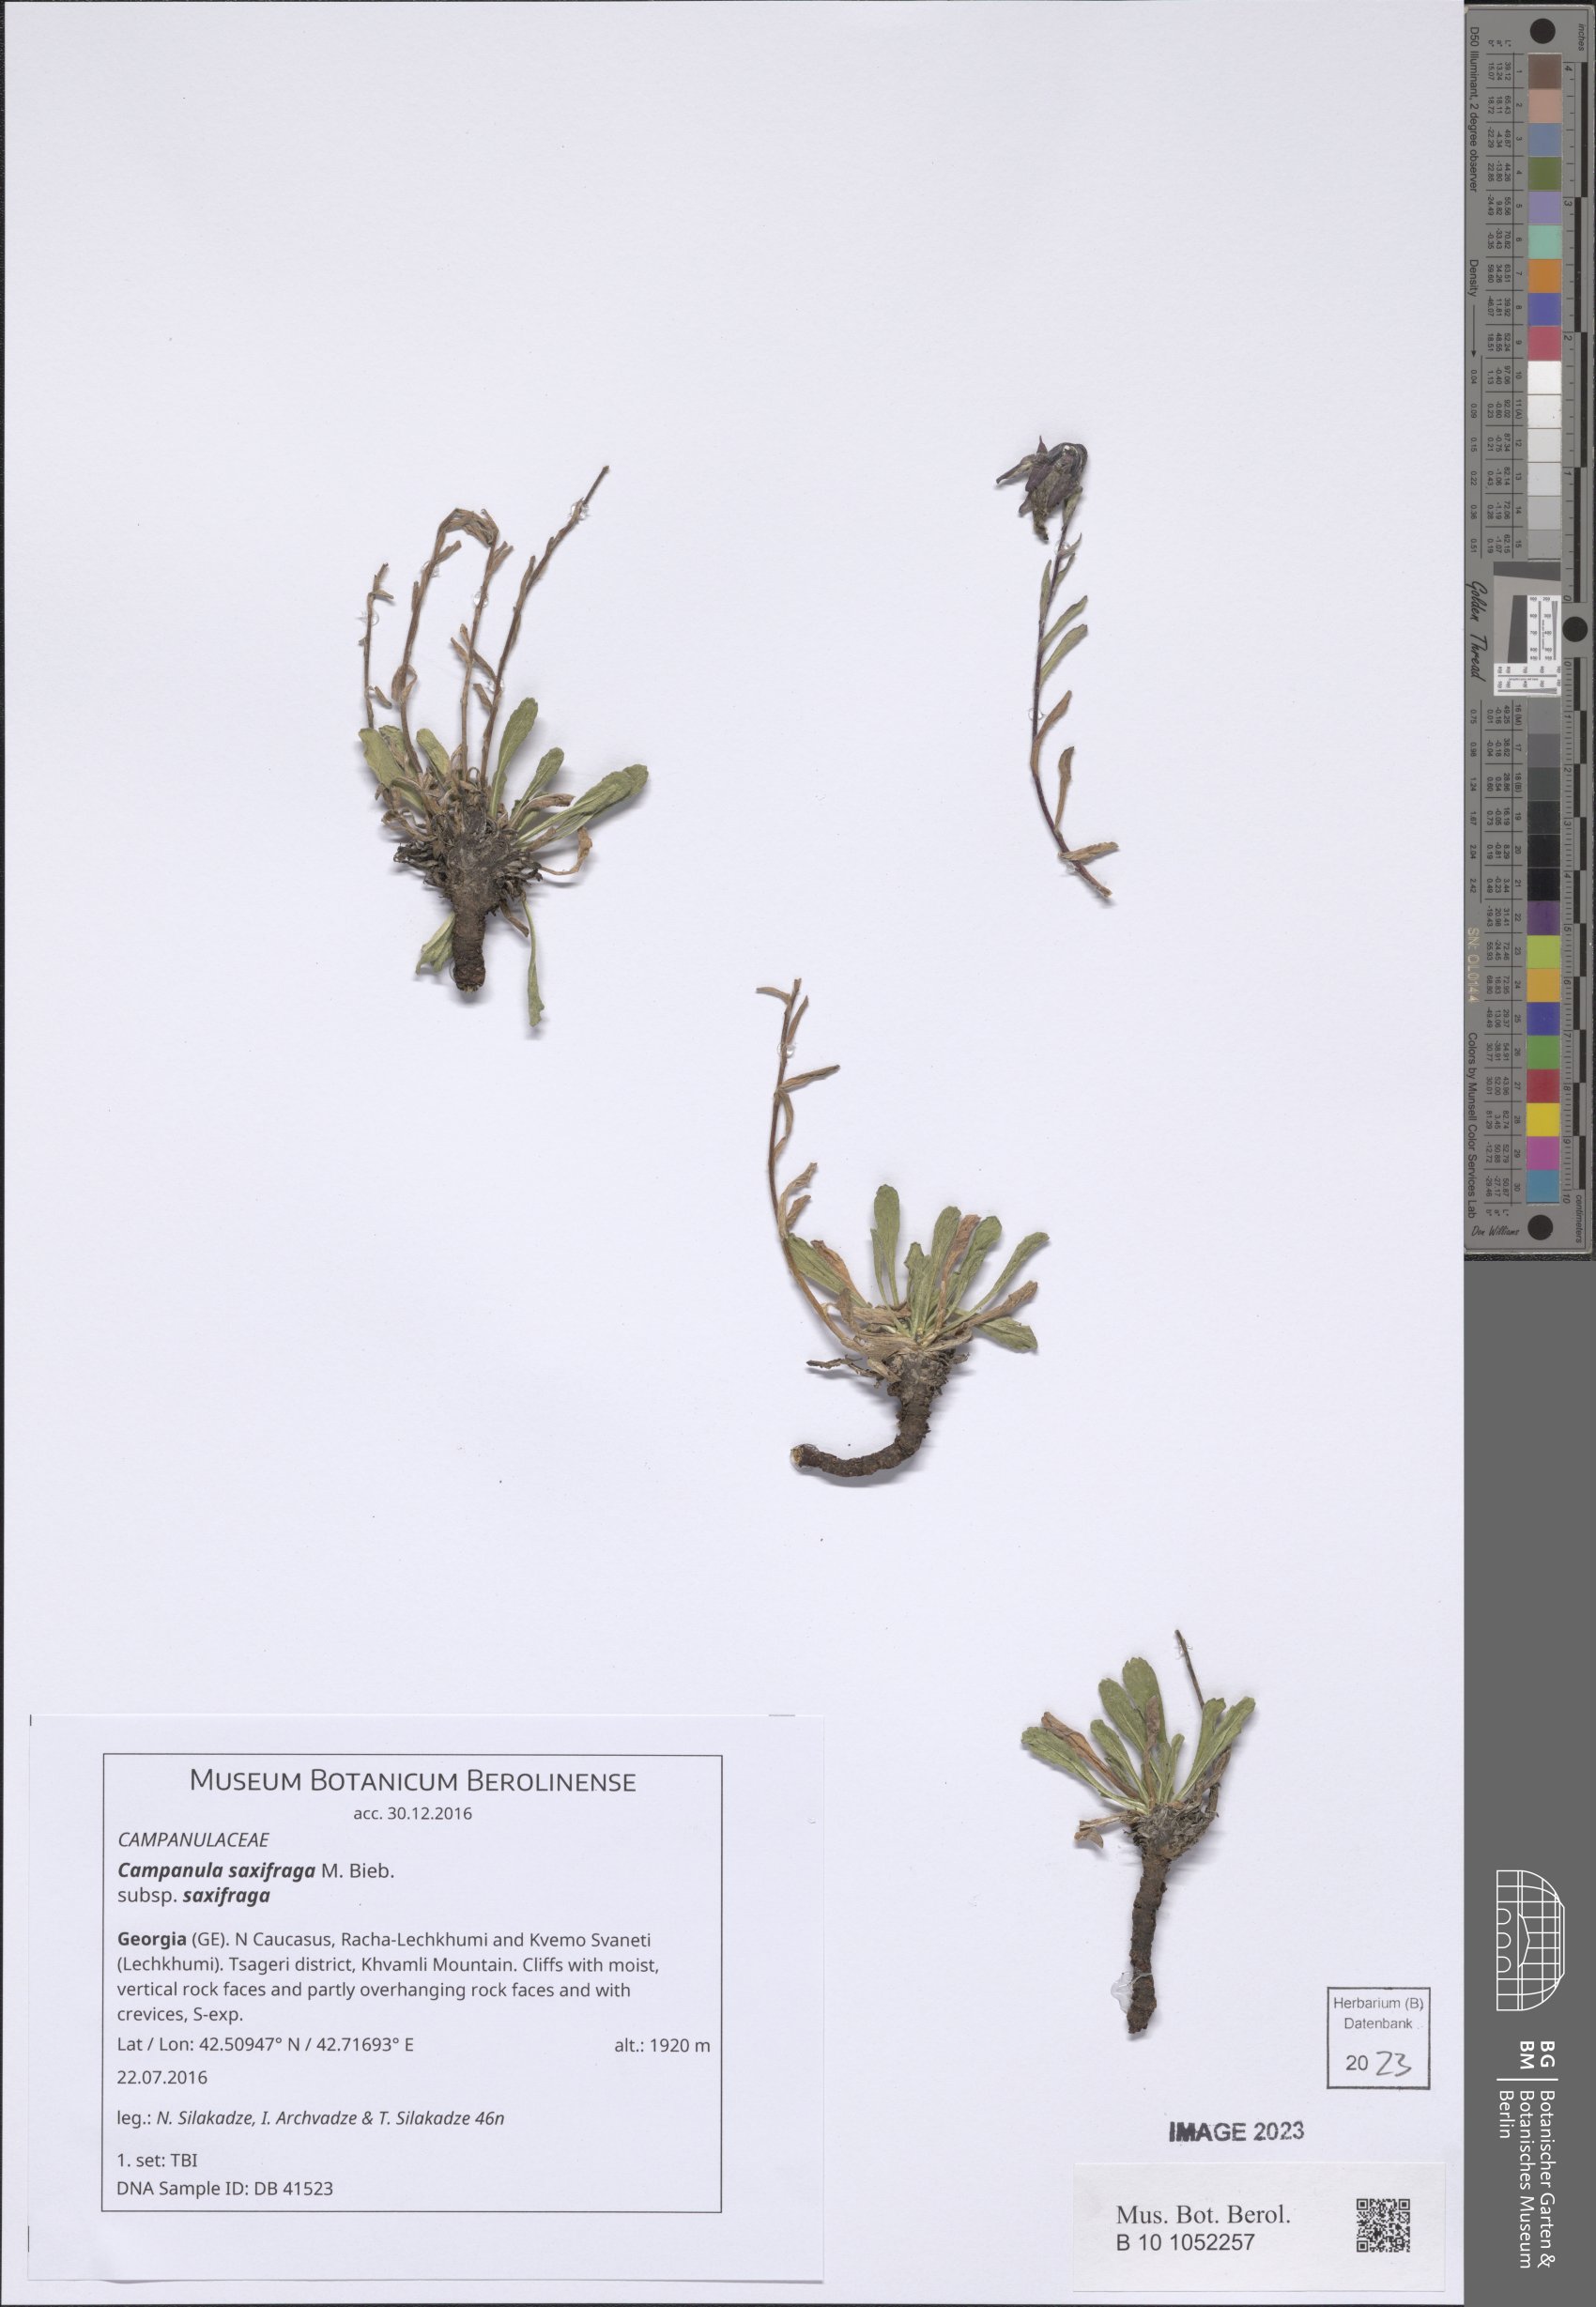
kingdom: Plantae
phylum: Tracheophyta
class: Magnoliopsida
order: Asterales
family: Campanulaceae
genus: Campanula
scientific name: Campanula saxifraga
